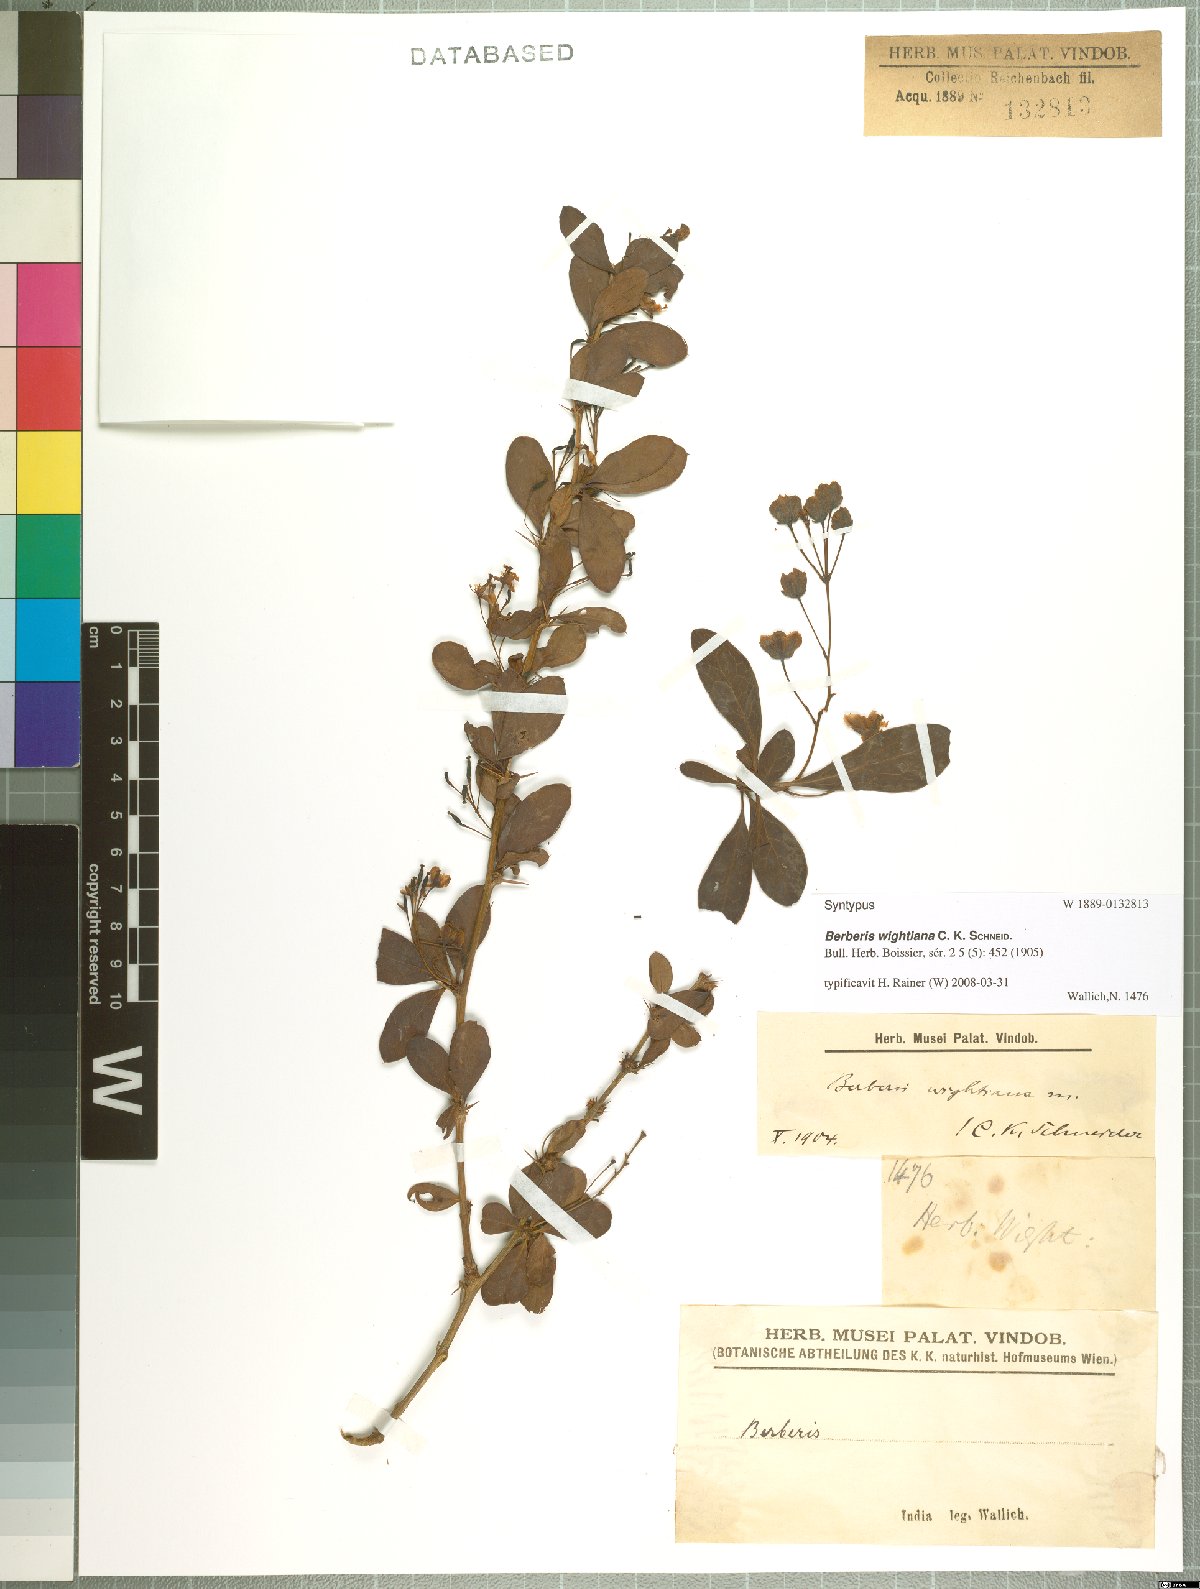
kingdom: Plantae
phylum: Tracheophyta
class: Magnoliopsida
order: Ranunculales
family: Berberidaceae
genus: Berberis
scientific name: Berberis wightiana
